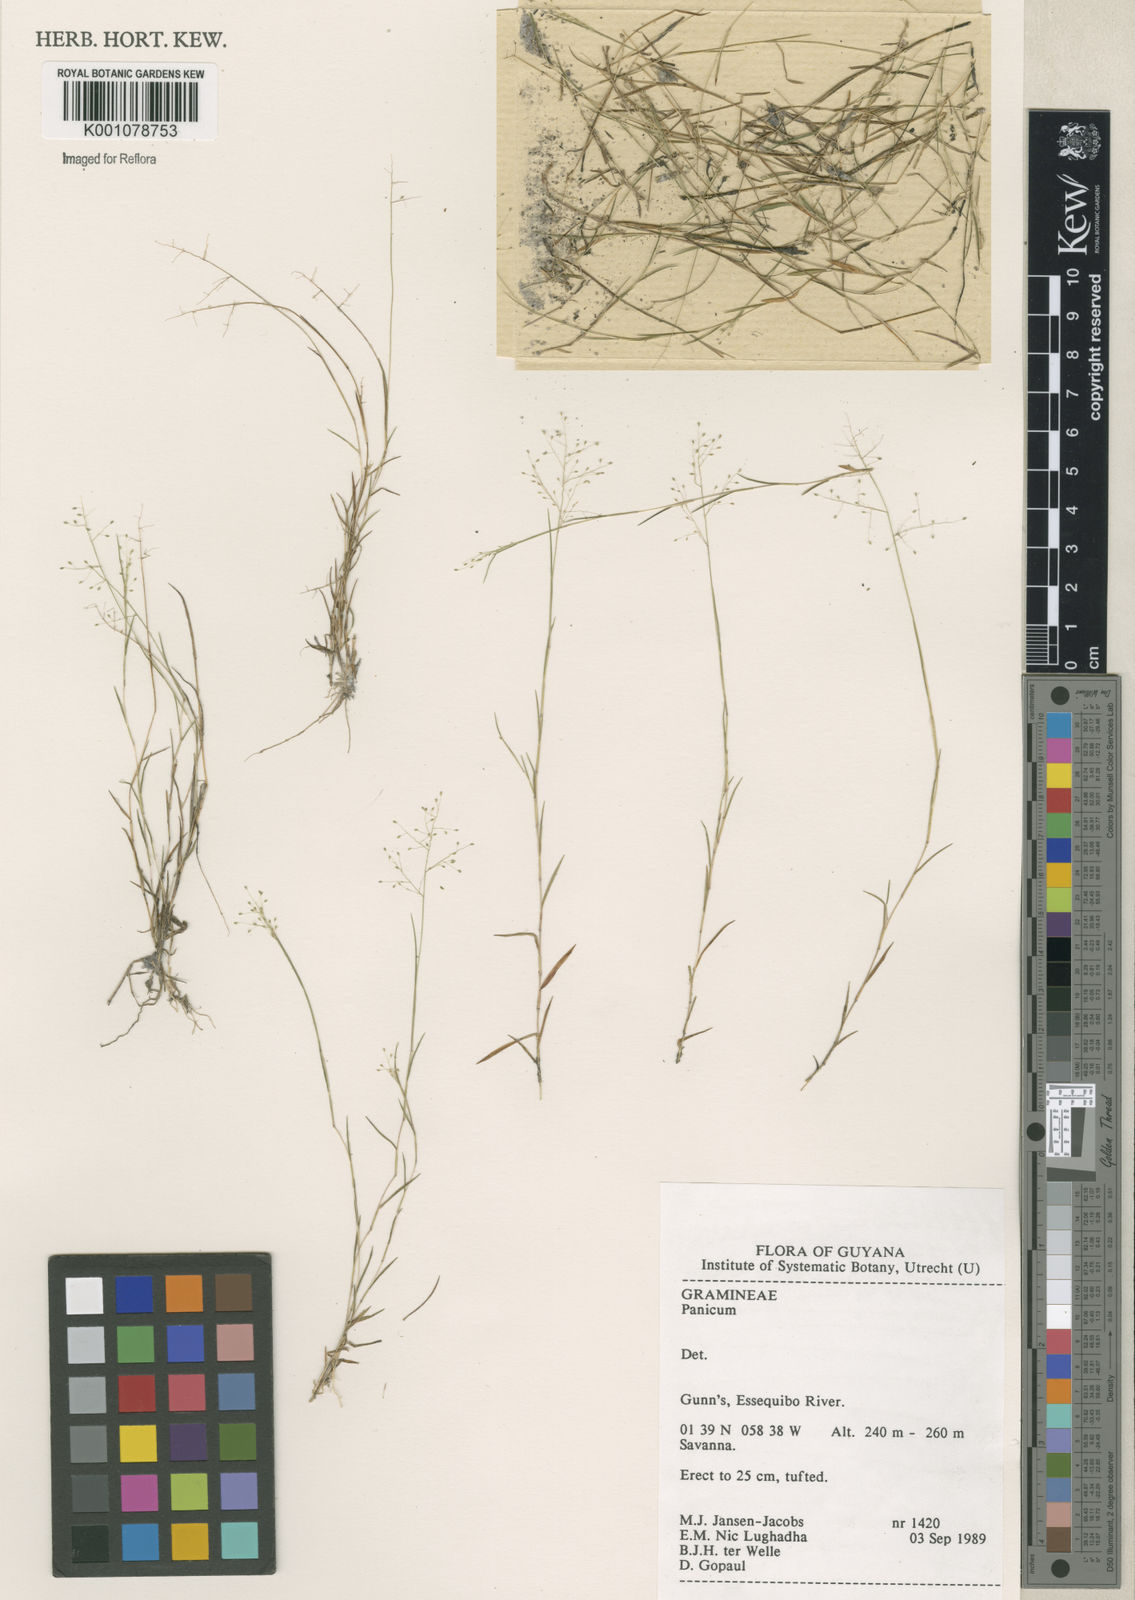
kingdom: Plantae
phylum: Tracheophyta
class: Liliopsida
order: Poales
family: Poaceae
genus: Panicum
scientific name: Panicum
